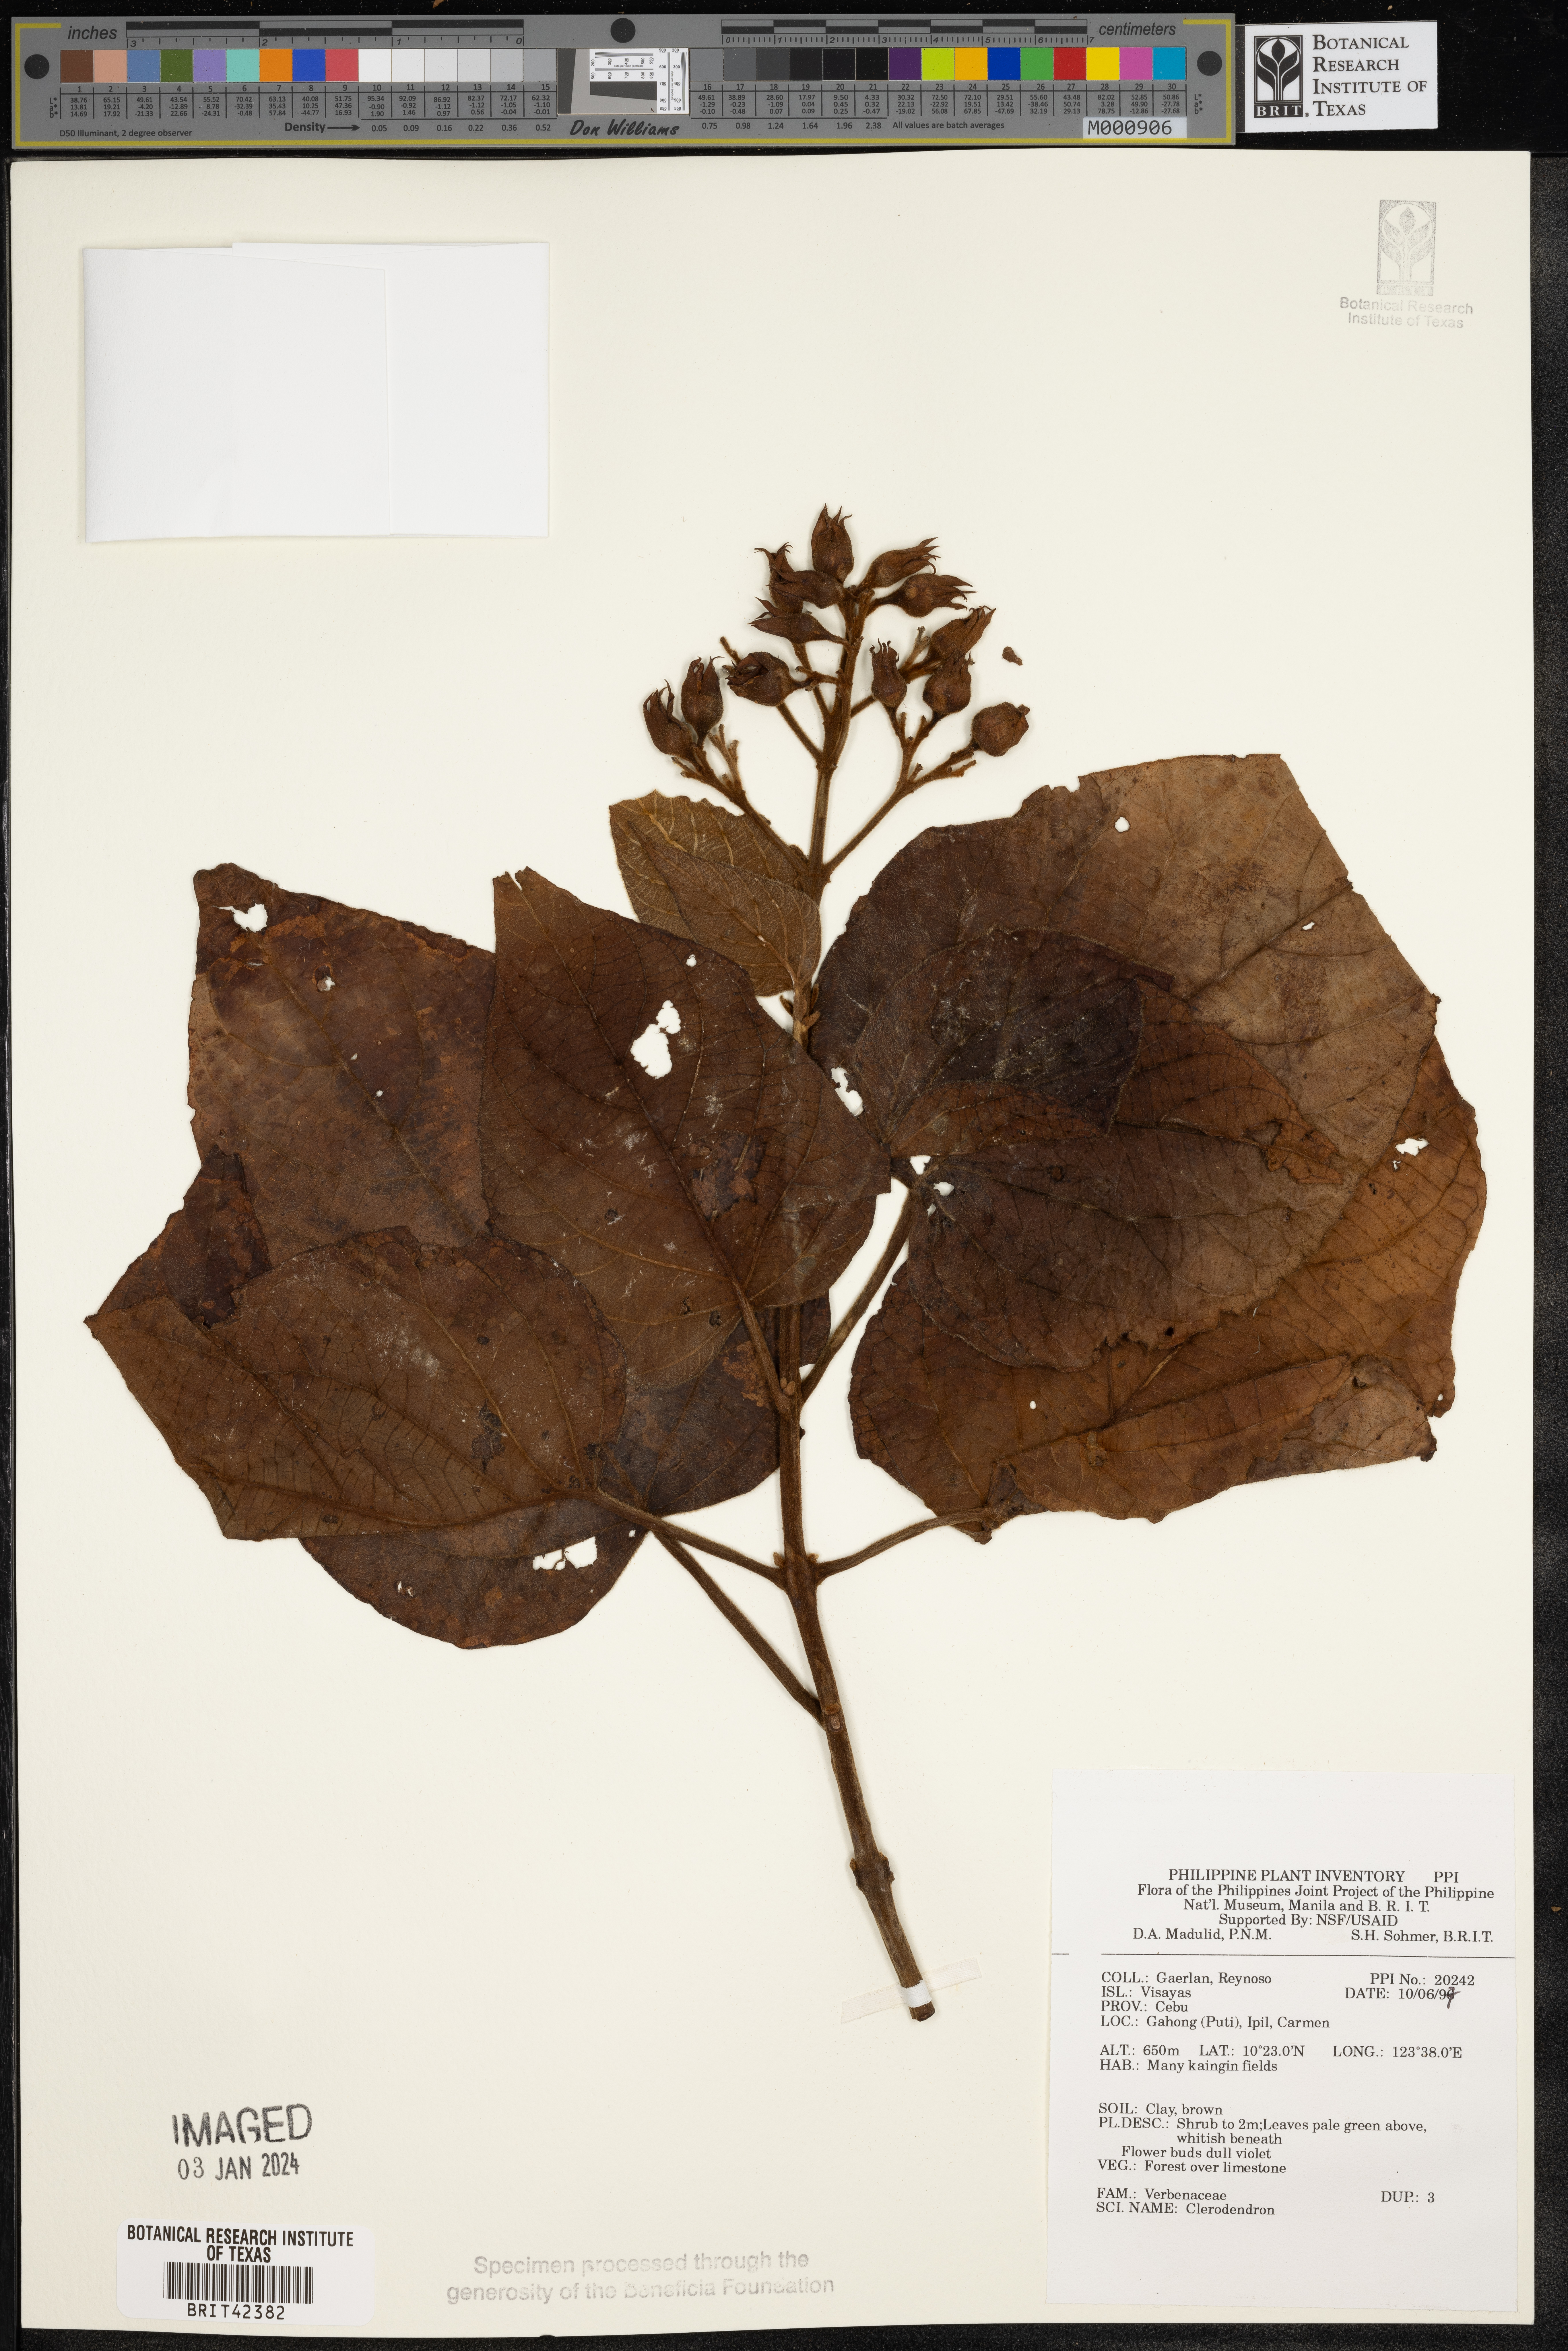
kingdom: Plantae
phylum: Tracheophyta
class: Magnoliopsida
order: Lamiales
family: Lamiaceae
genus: Clerodendrum
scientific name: Clerodendrum
